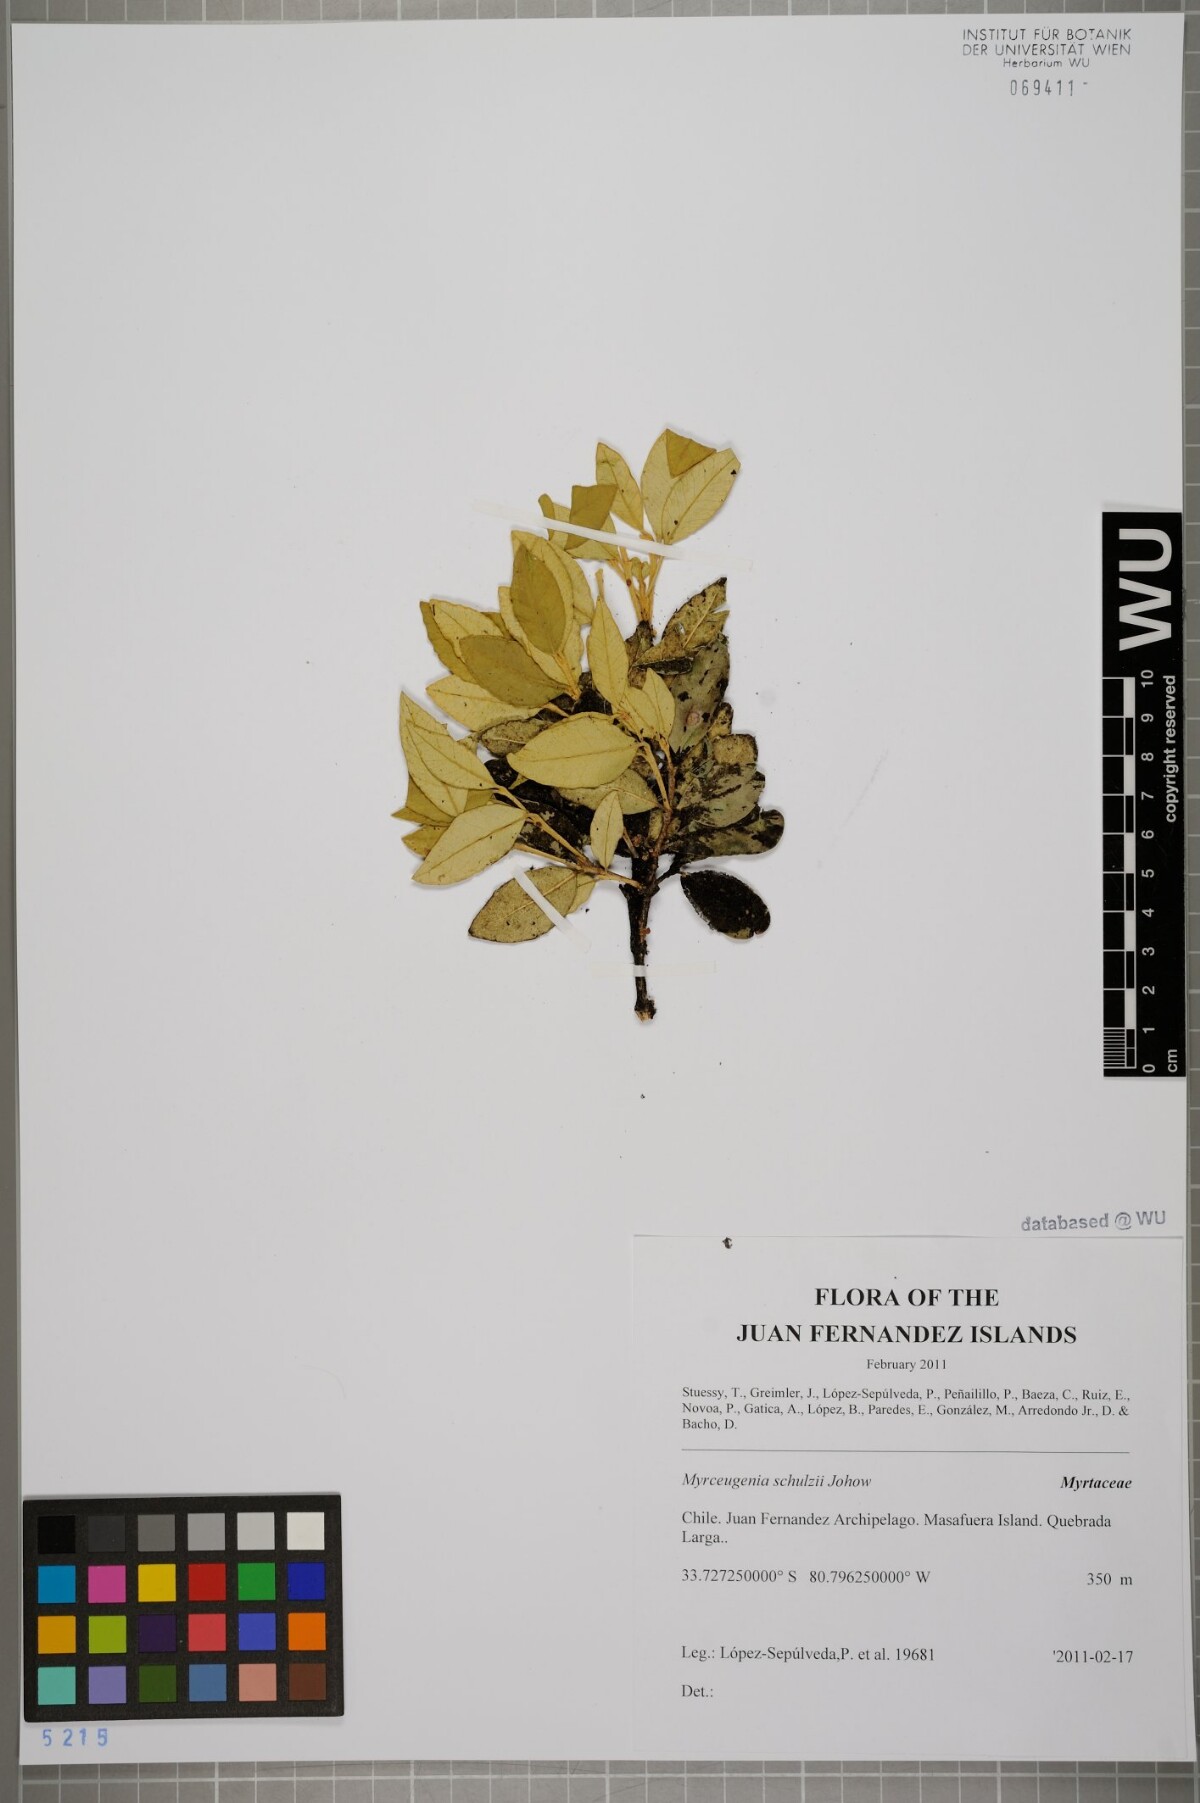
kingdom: Plantae
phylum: Tracheophyta
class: Magnoliopsida
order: Myrtales
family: Myrtaceae
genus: Myrceugenia
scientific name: Myrceugenia schulzei
